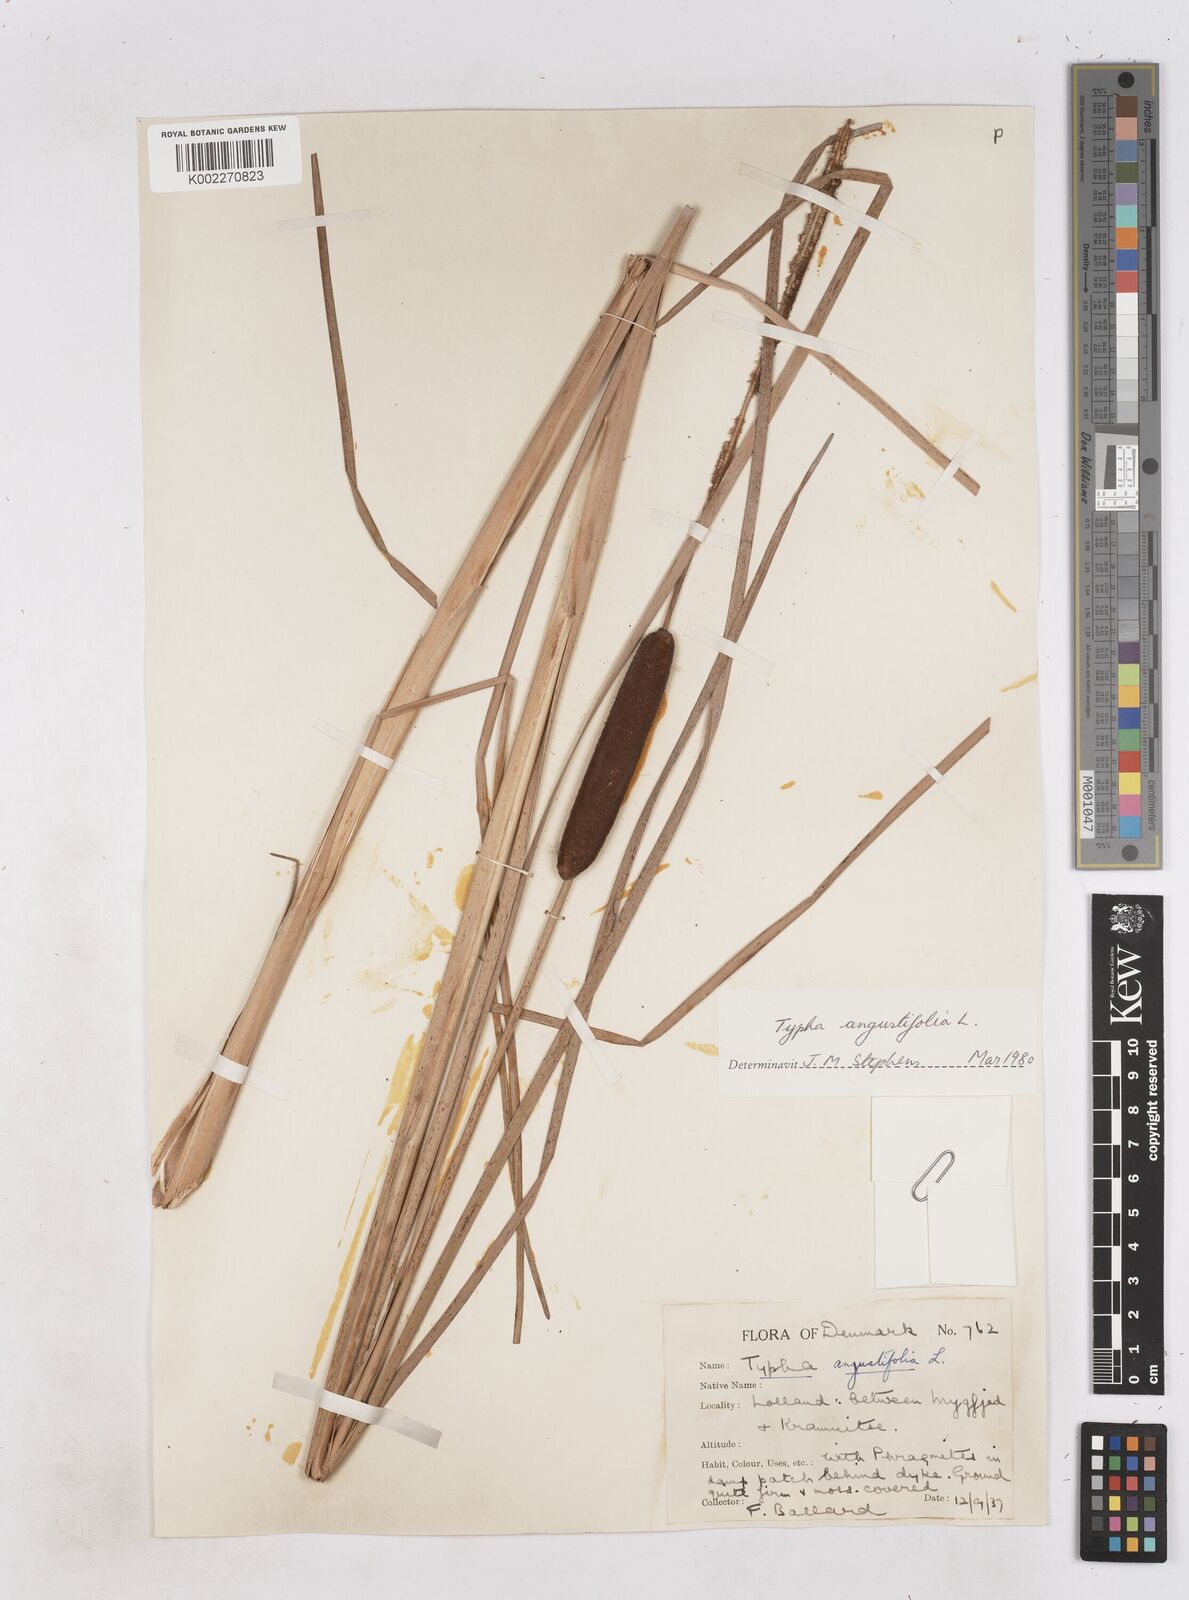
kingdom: Plantae
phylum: Tracheophyta
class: Liliopsida
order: Poales
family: Typhaceae
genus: Typha
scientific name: Typha angustifolia
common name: Lesser bulrush
